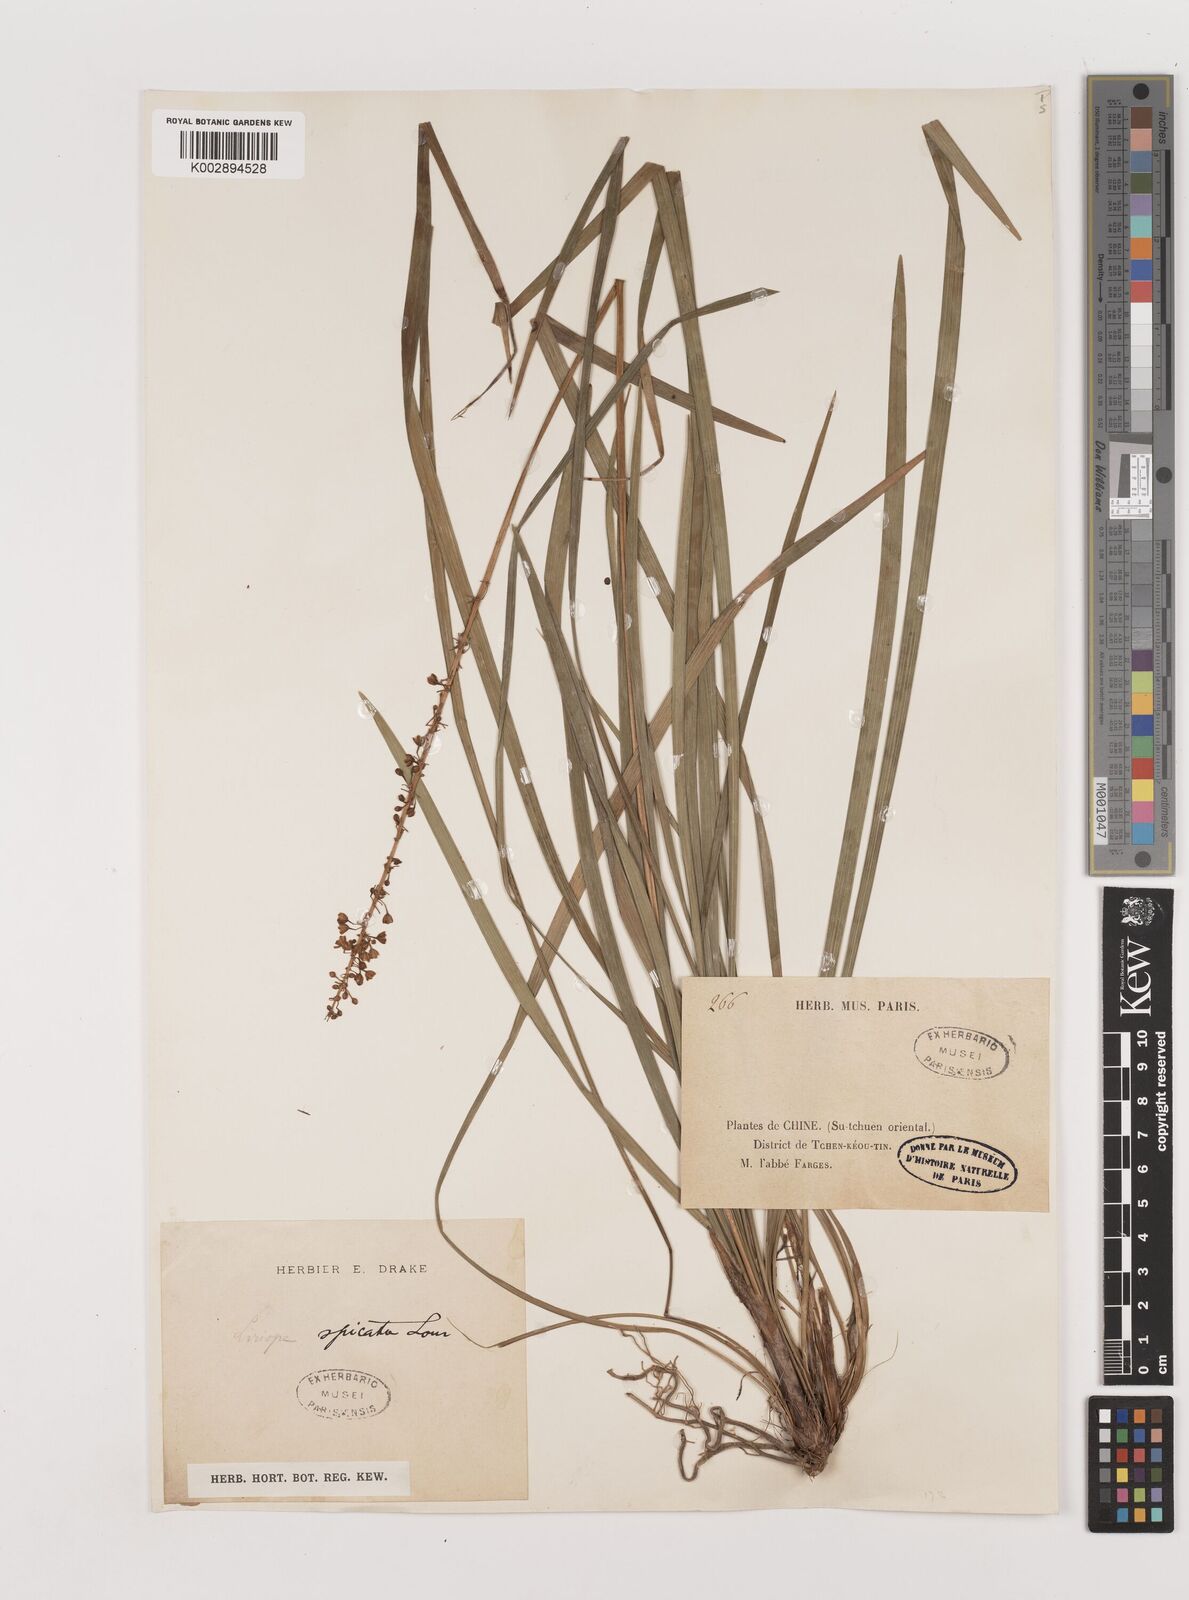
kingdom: Plantae
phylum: Tracheophyta
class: Liliopsida
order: Asparagales
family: Asparagaceae
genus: Liriope
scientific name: Liriope spicata
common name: Creeping liriope
